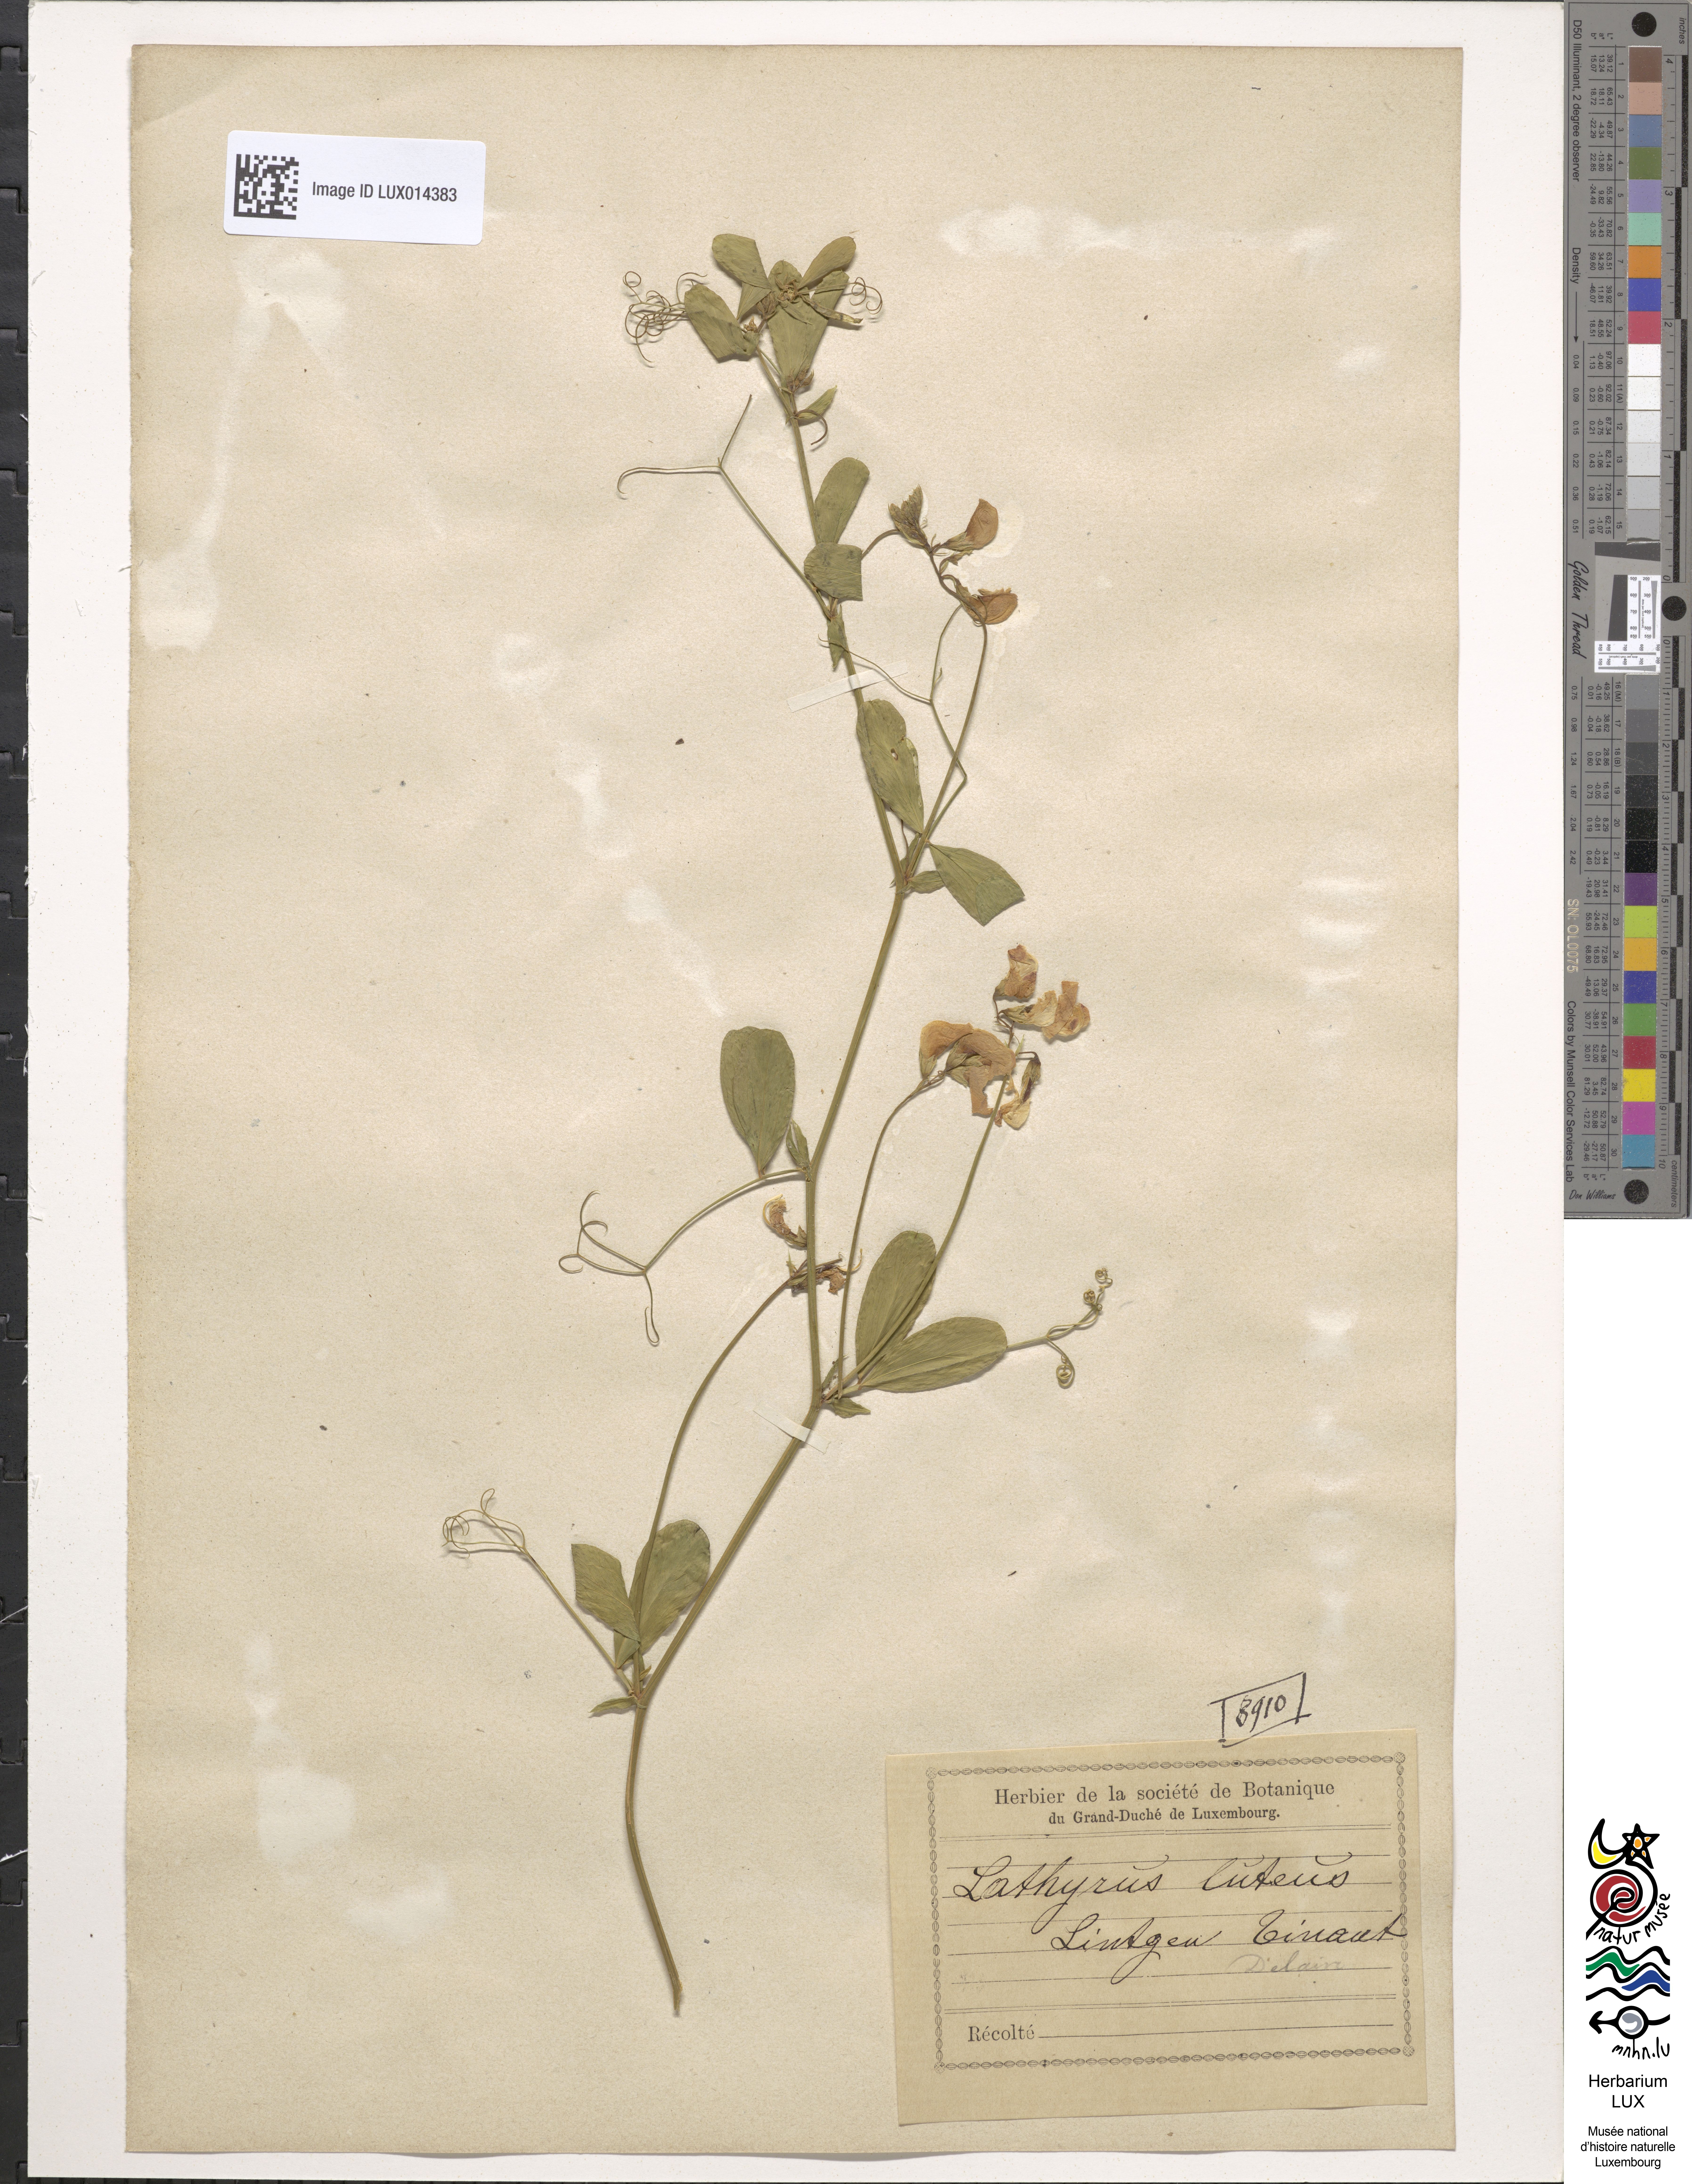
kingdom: Plantae
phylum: Tracheophyta
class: Magnoliopsida
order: Fabales
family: Fabaceae
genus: Lathyrus
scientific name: Lathyrus
